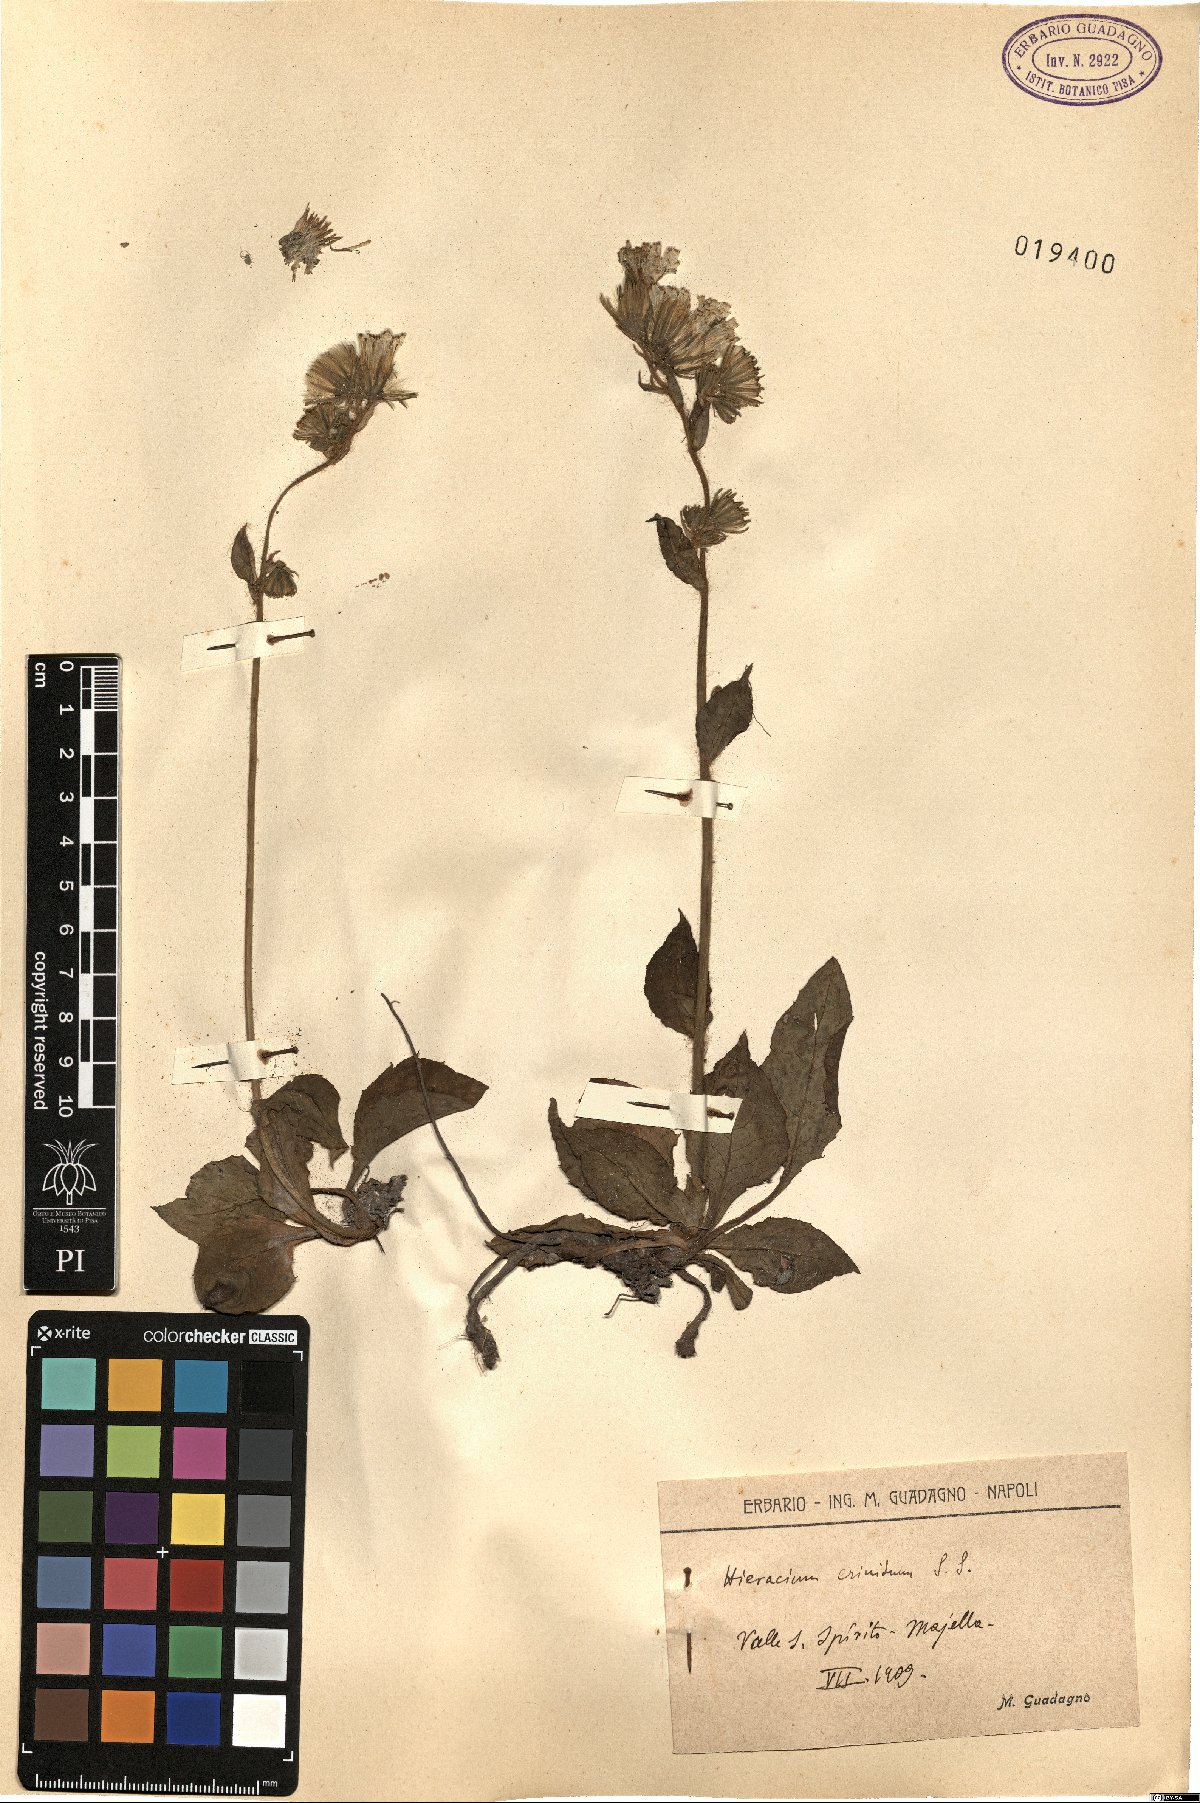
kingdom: Plantae
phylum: Tracheophyta
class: Magnoliopsida
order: Asterales
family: Asteraceae
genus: Hieracium
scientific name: Hieracium racemosum
